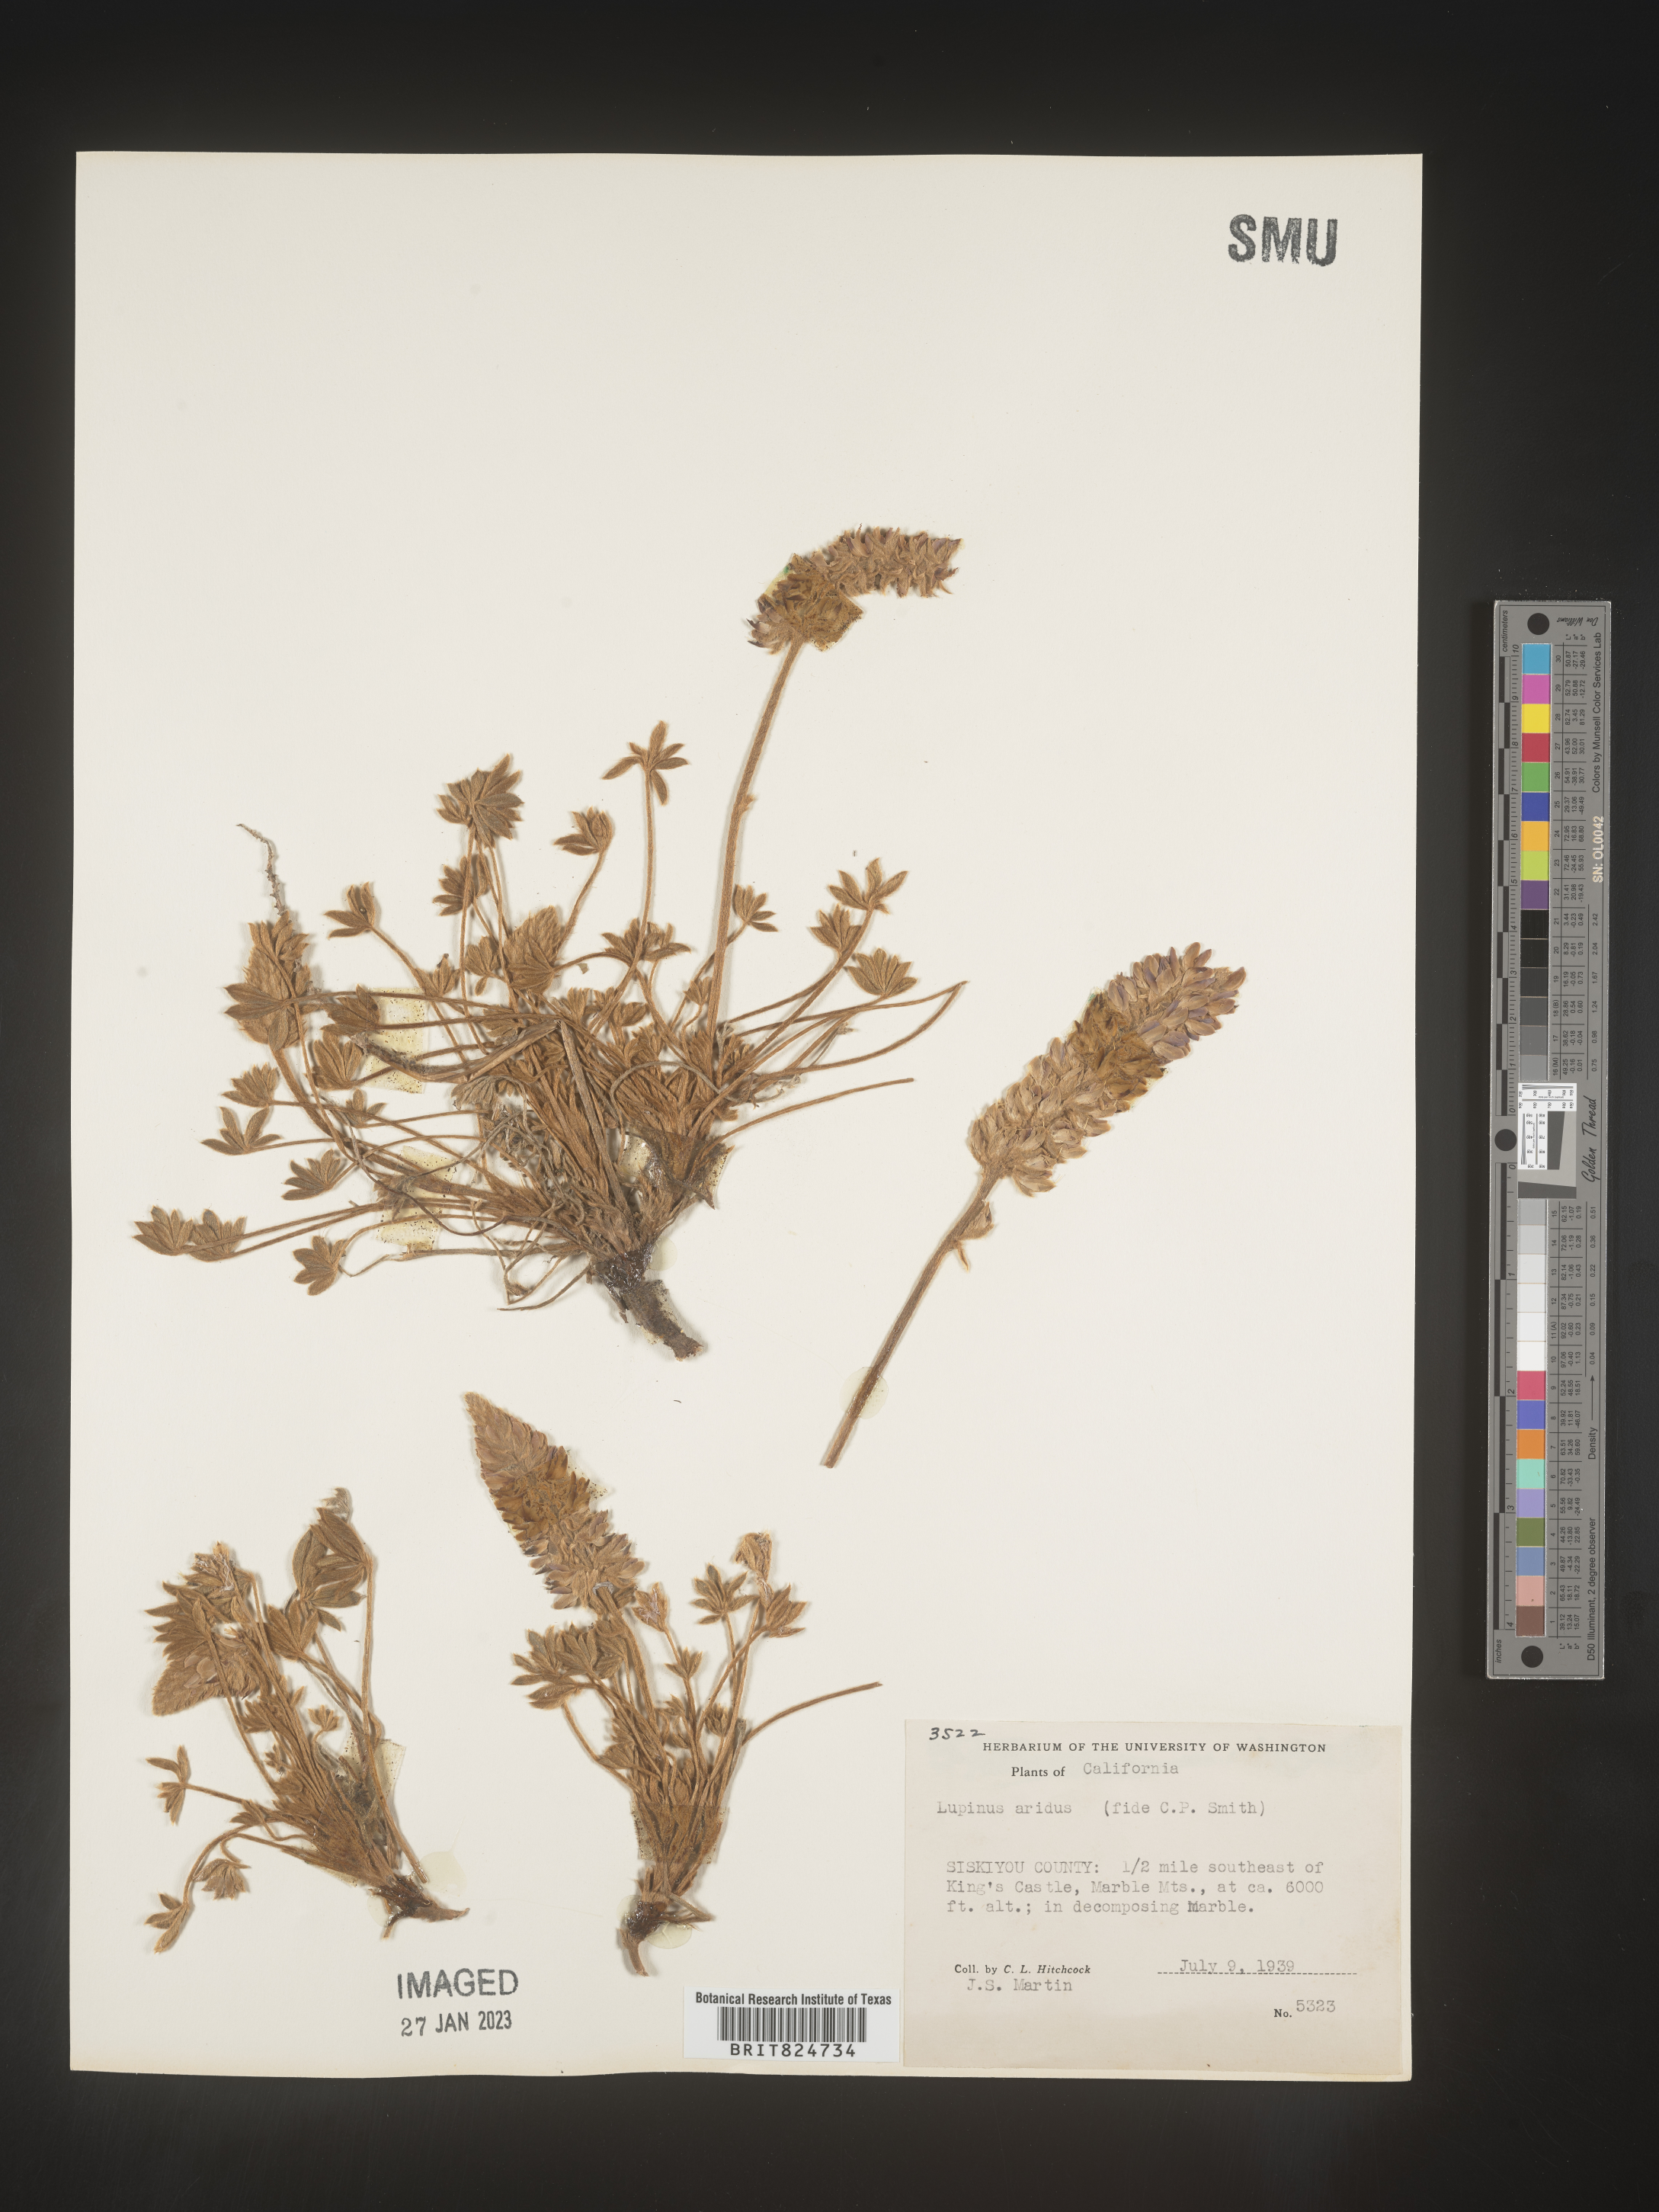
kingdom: Plantae
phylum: Tracheophyta
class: Magnoliopsida
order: Fabales
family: Fabaceae
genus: Lupinus
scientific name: Lupinus aridus
